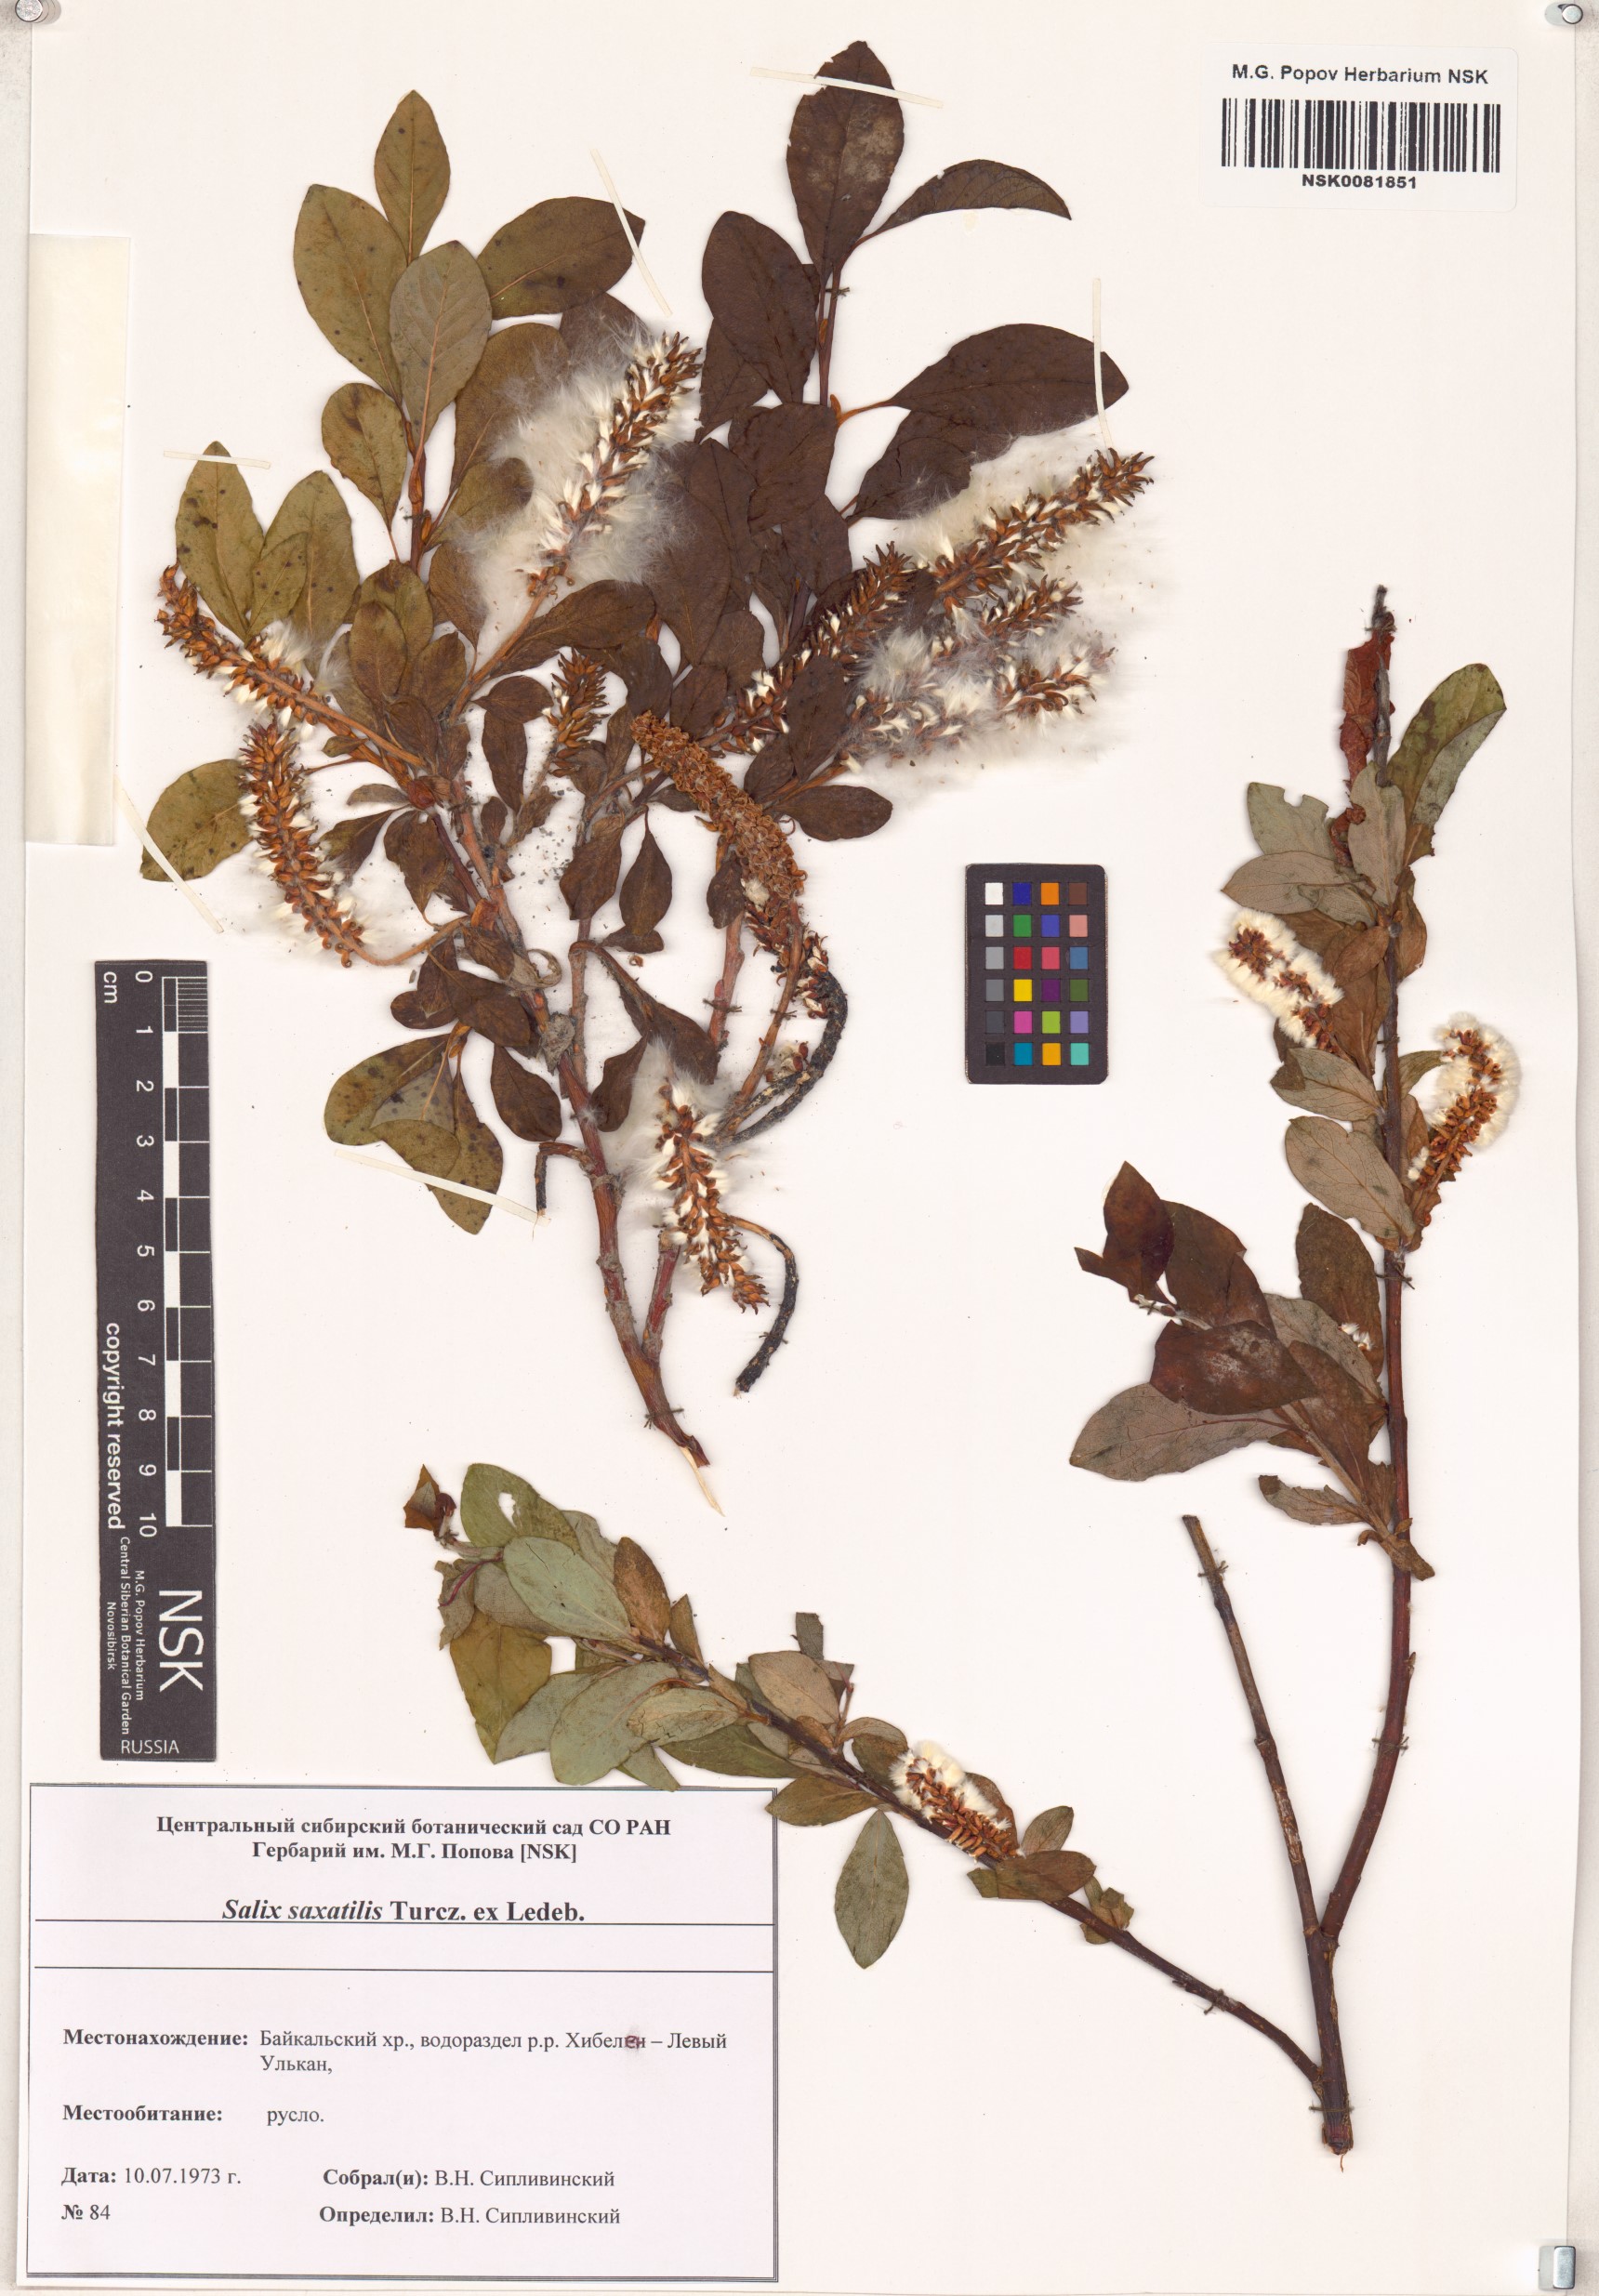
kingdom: Plantae
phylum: Tracheophyta
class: Magnoliopsida
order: Malpighiales
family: Salicaceae
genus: Salix
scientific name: Salix saxatilis
